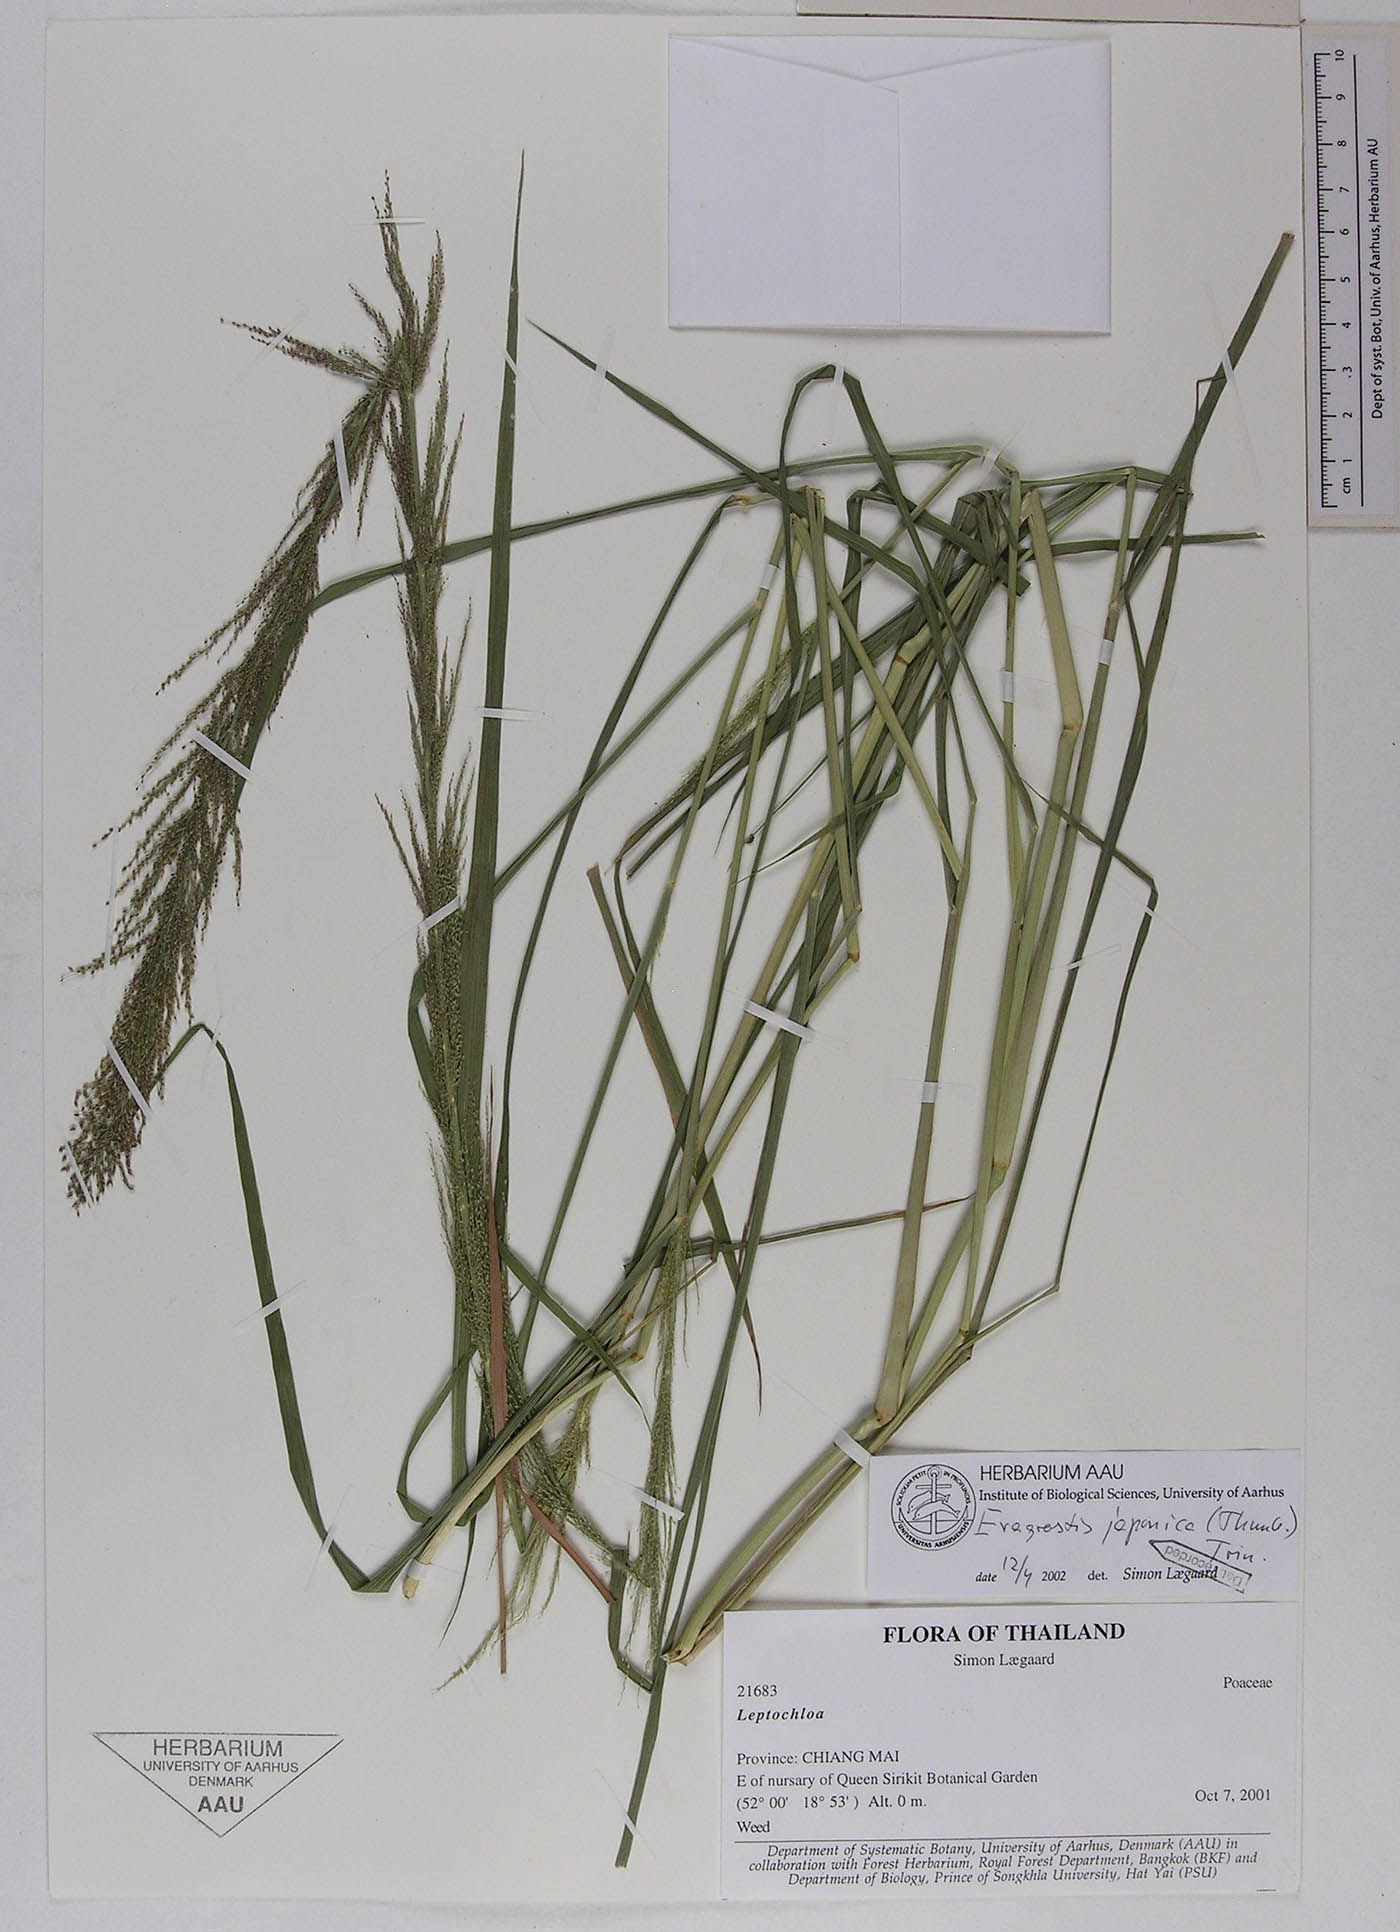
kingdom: Plantae
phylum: Tracheophyta
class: Liliopsida
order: Poales
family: Poaceae
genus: Eragrostis
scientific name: Eragrostis japonica
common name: Pond lovegrass
